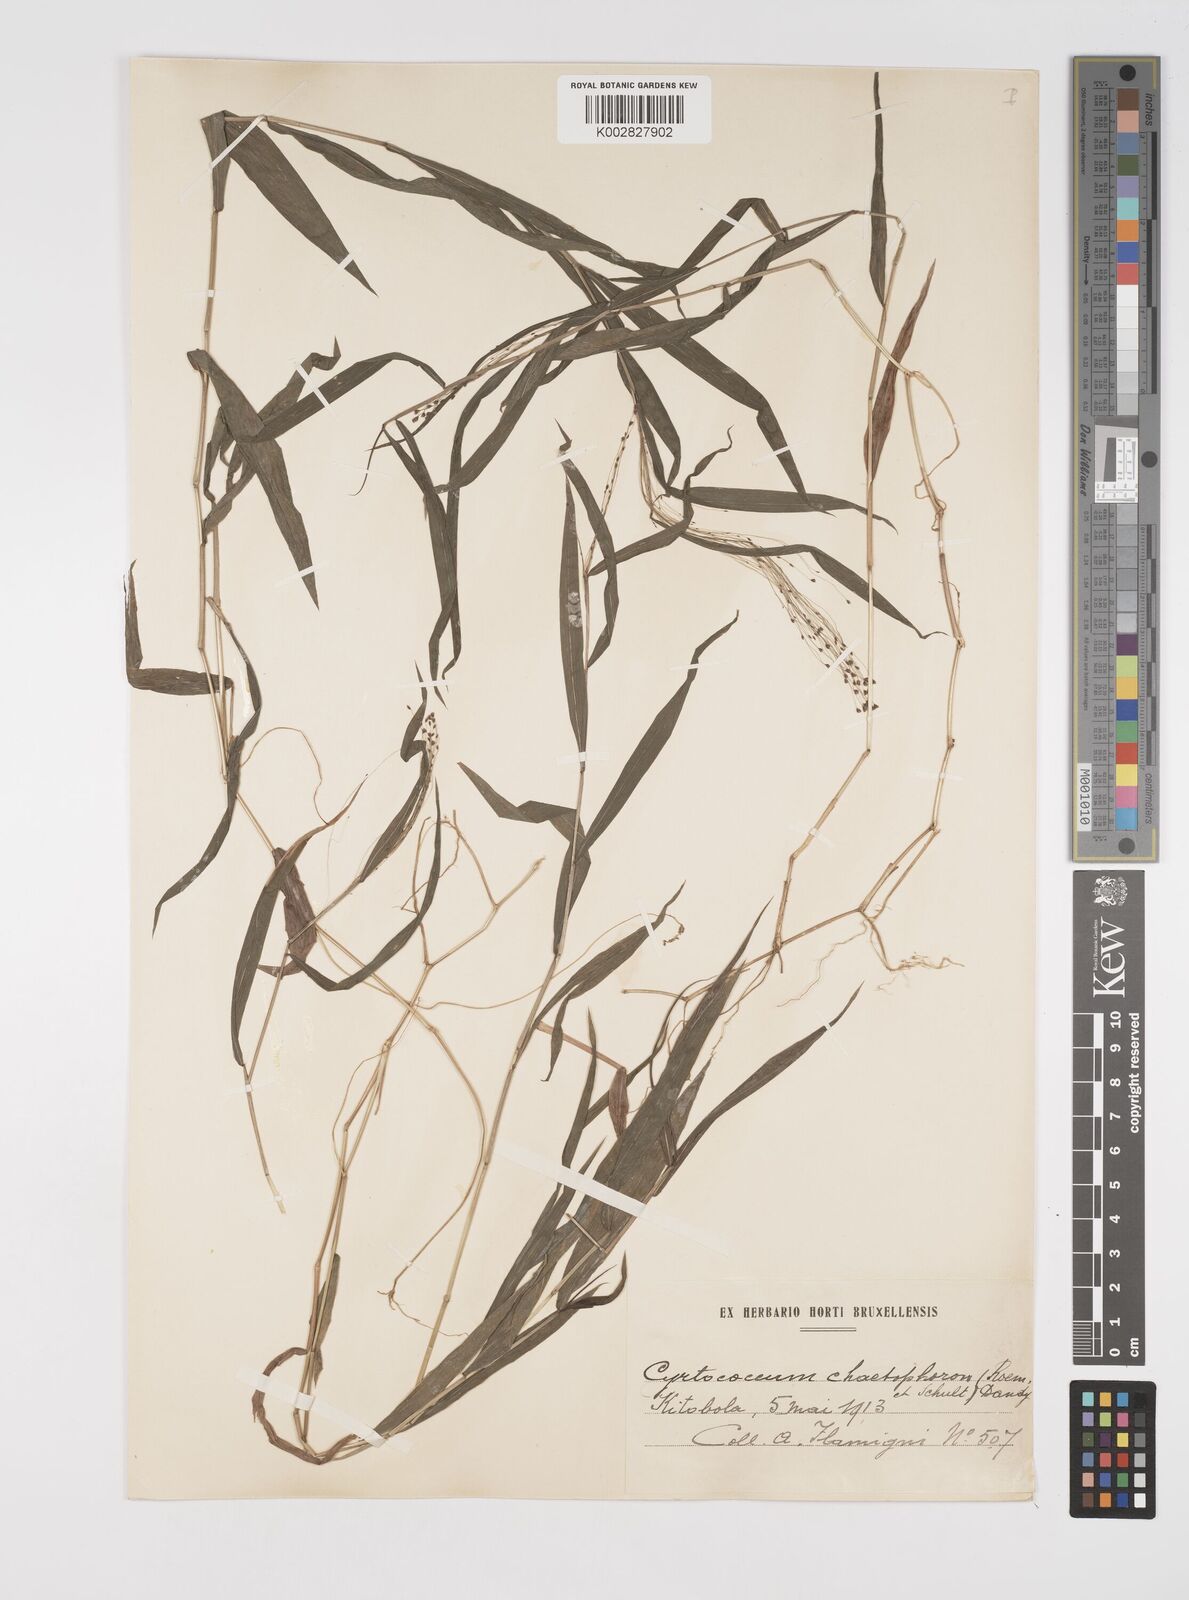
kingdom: Plantae
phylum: Tracheophyta
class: Liliopsida
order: Poales
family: Poaceae
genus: Cyrtococcum
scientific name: Cyrtococcum chaetophoron
